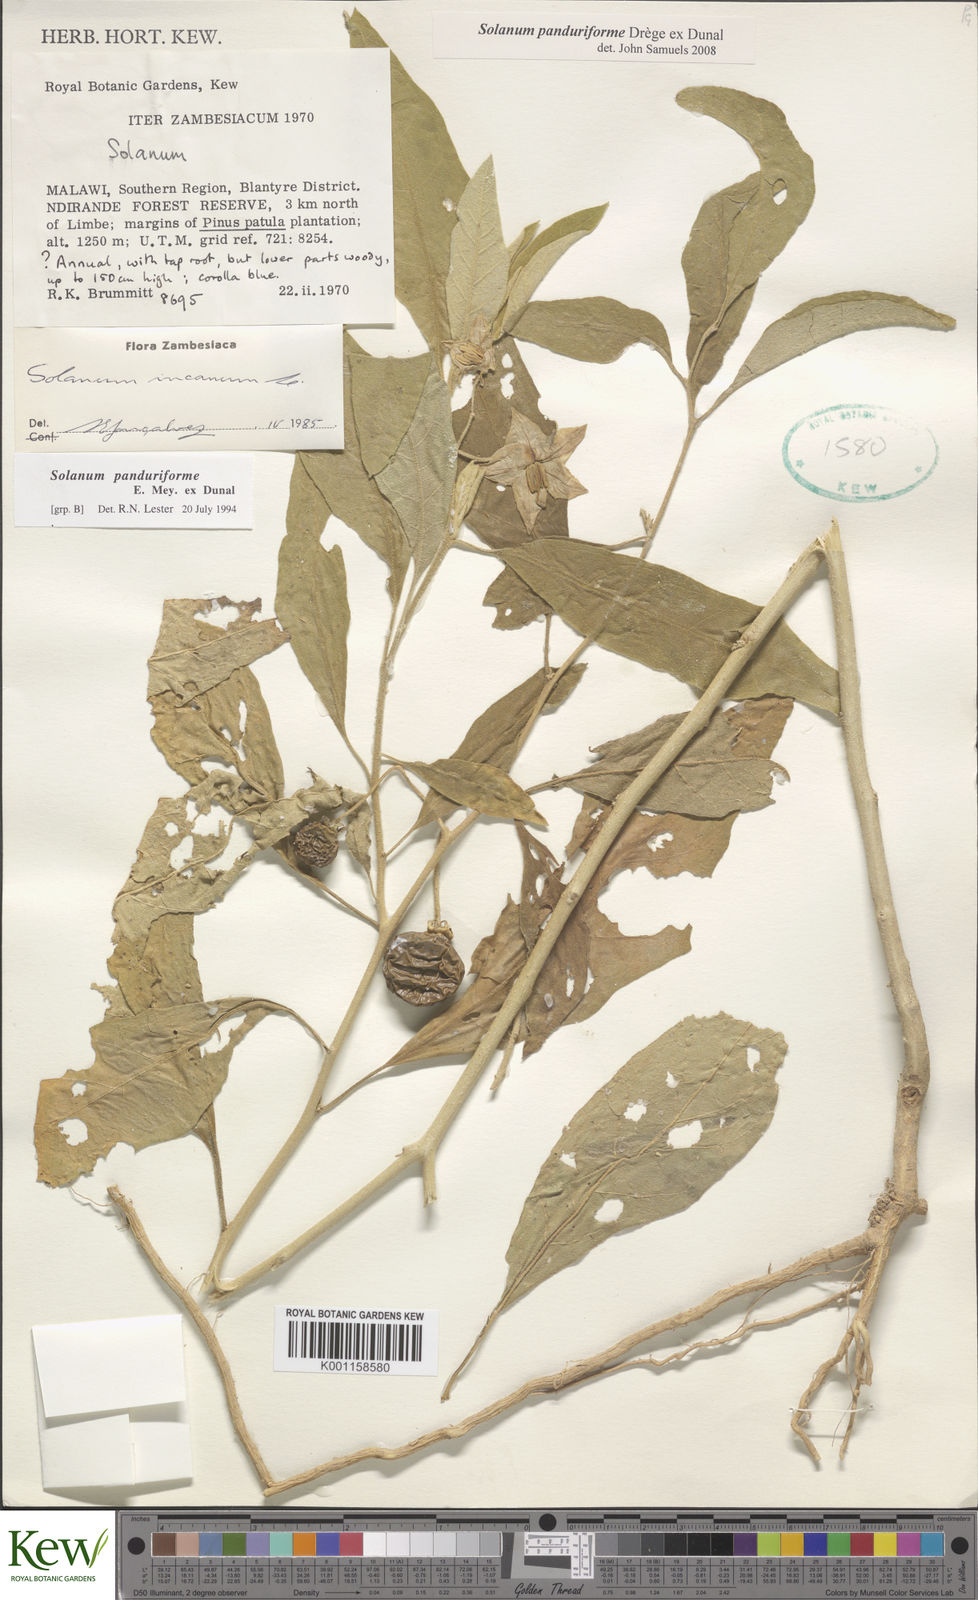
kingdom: Plantae
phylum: Tracheophyta
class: Magnoliopsida
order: Solanales
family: Solanaceae
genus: Solanum
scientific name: Solanum campylacanthum
